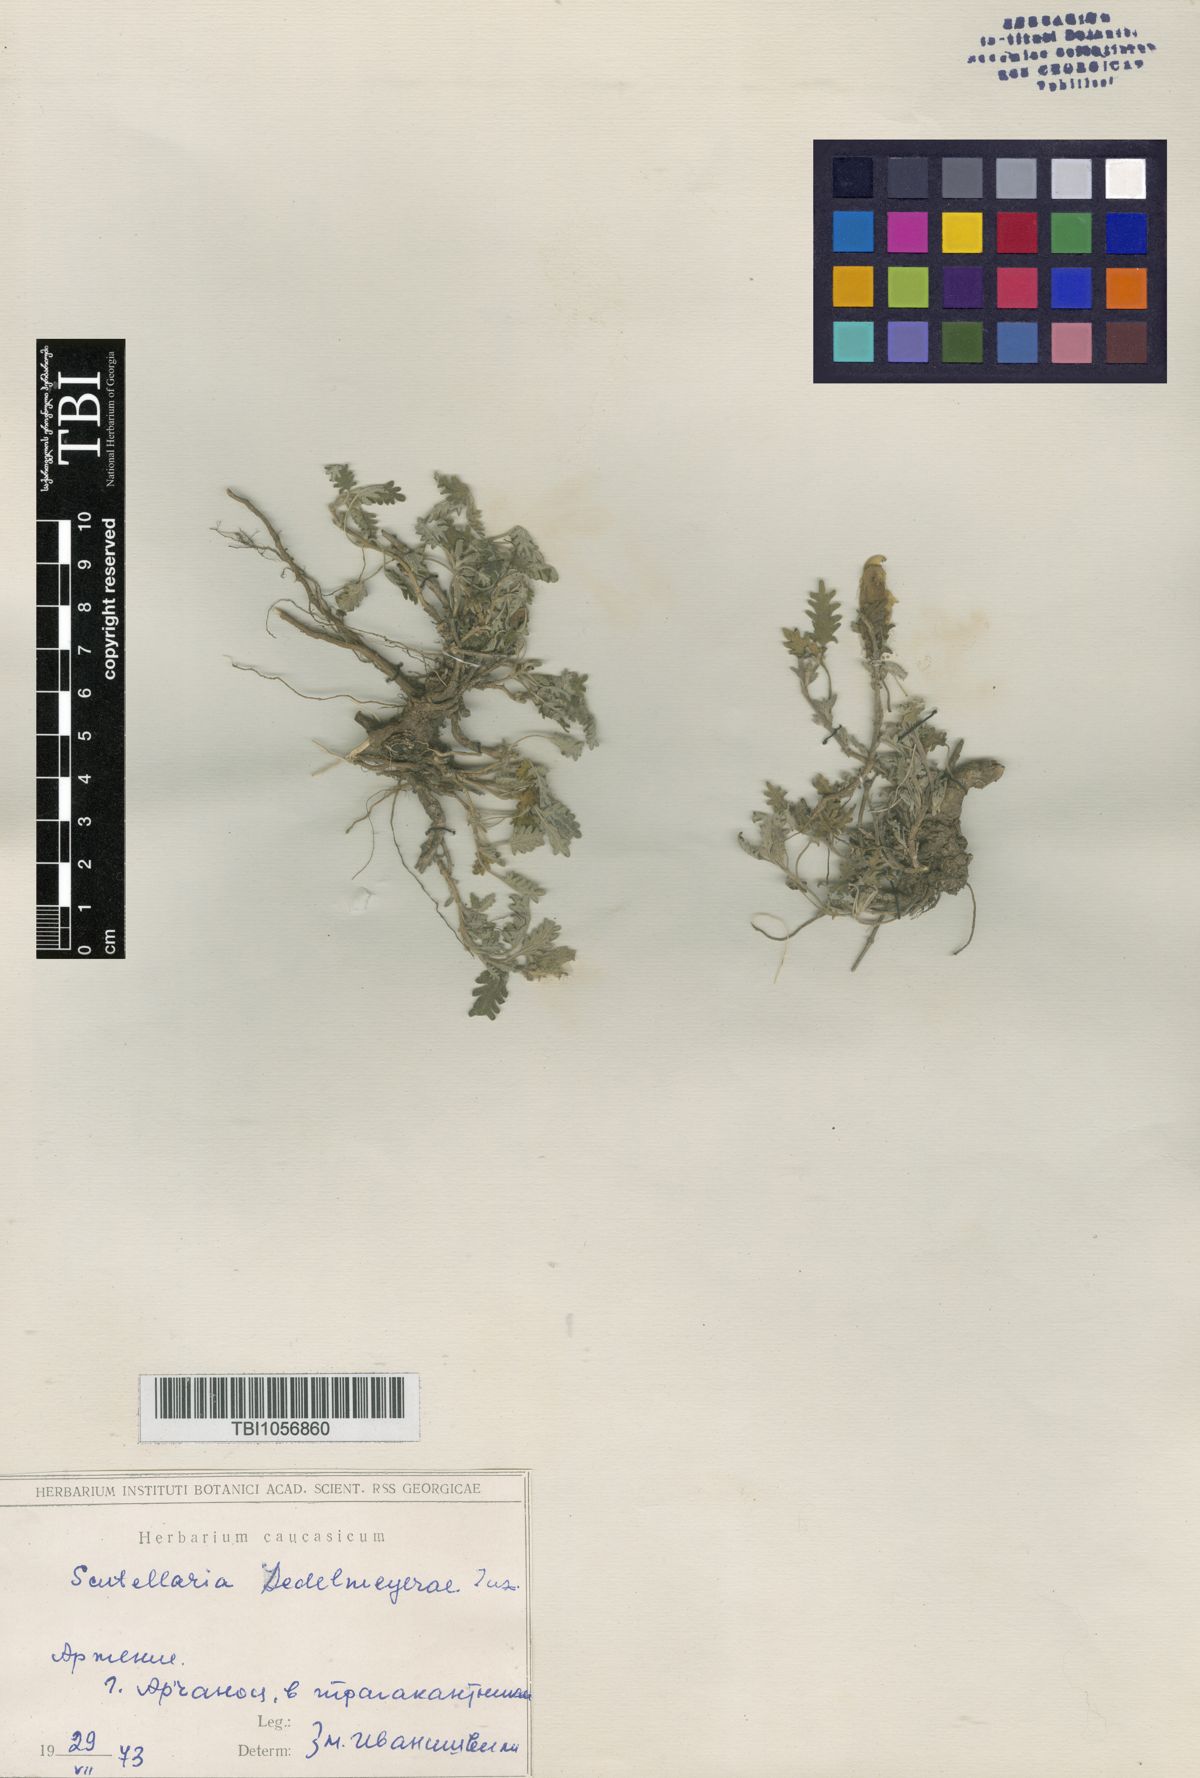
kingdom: Plantae
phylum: Tracheophyta
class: Magnoliopsida
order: Lamiales
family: Lamiaceae
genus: Scutellaria
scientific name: Scutellaria sedelmeyerae
